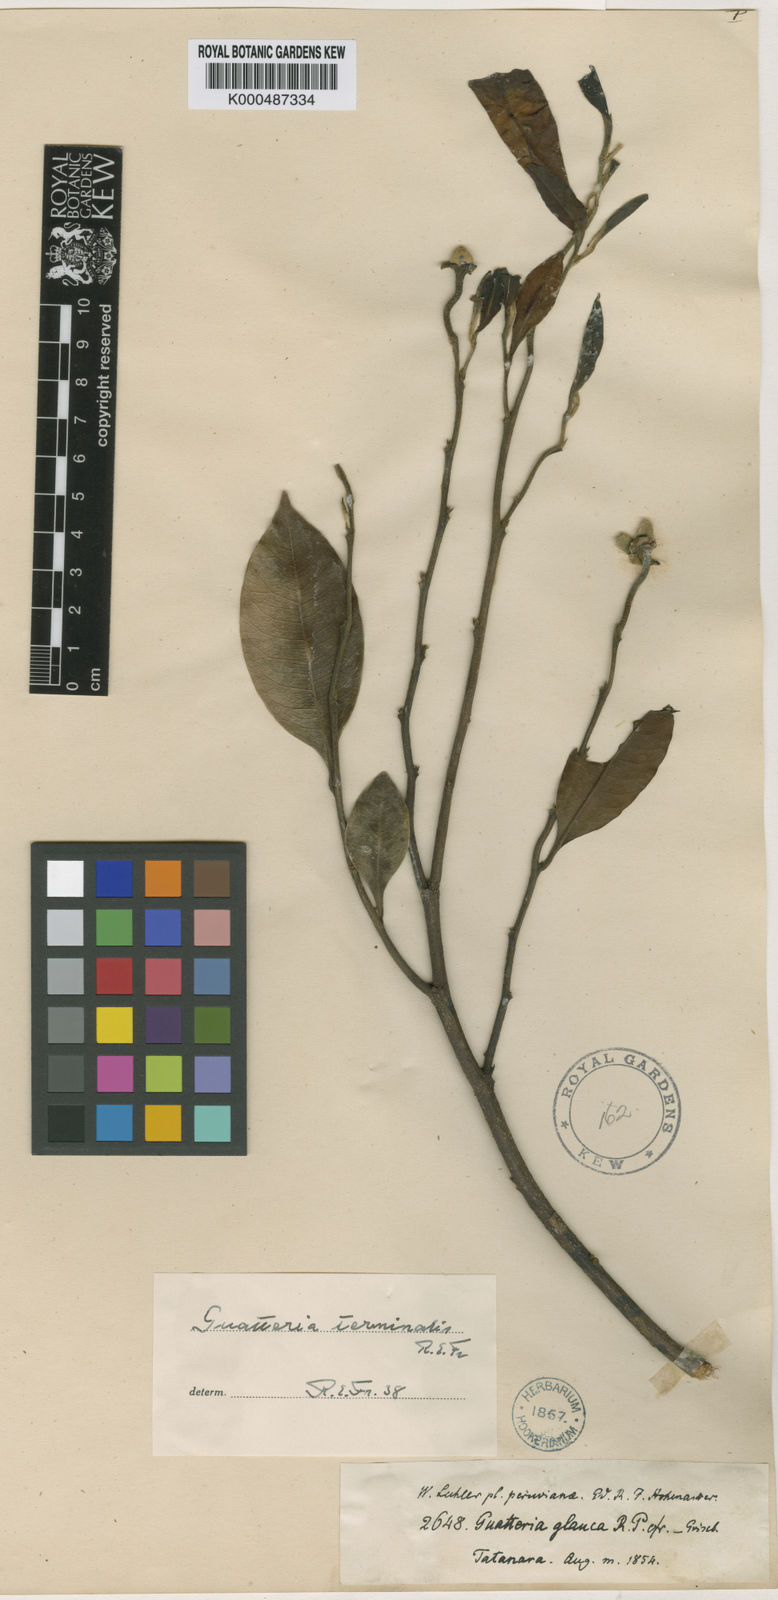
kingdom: Plantae
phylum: Tracheophyta
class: Magnoliopsida
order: Magnoliales
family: Annonaceae
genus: Guatteria
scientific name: Guatteria terminalis
